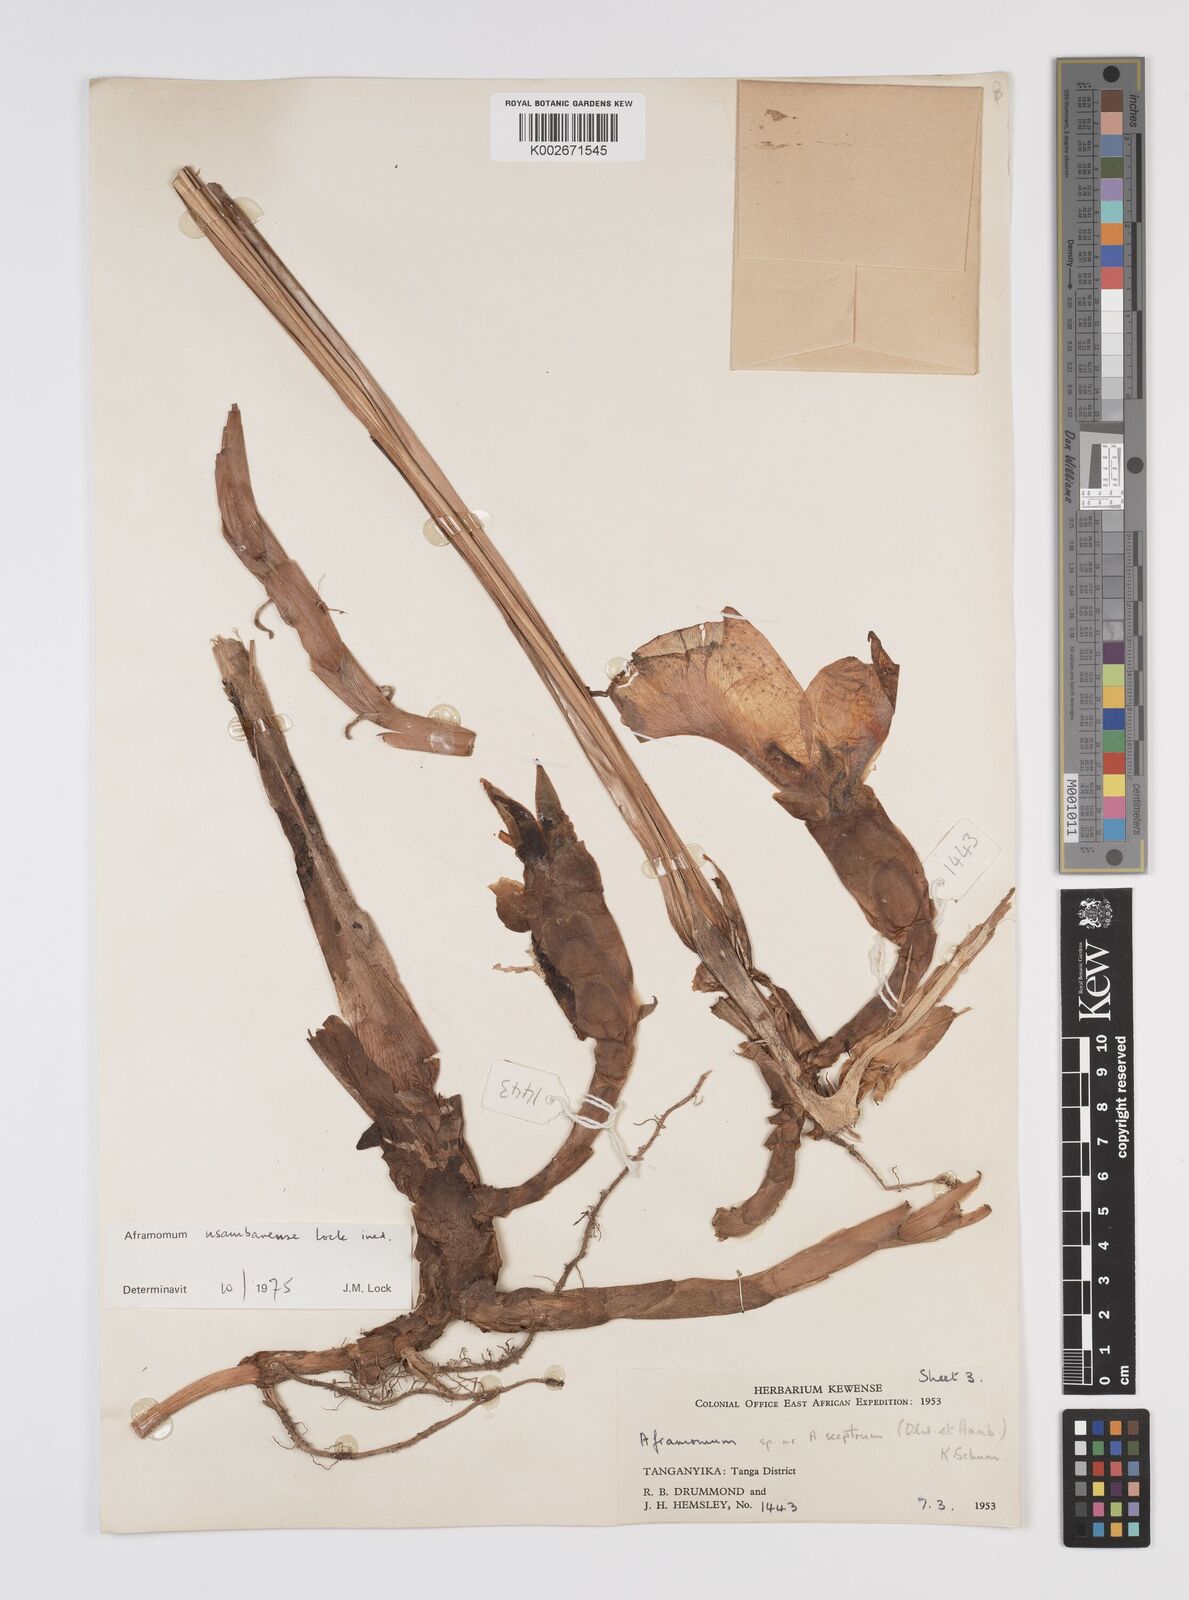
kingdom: Plantae
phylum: Tracheophyta
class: Liliopsida
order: Zingiberales
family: Zingiberaceae
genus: Aframomum
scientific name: Aframomum corrorima
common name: Ethiopian cardamom
